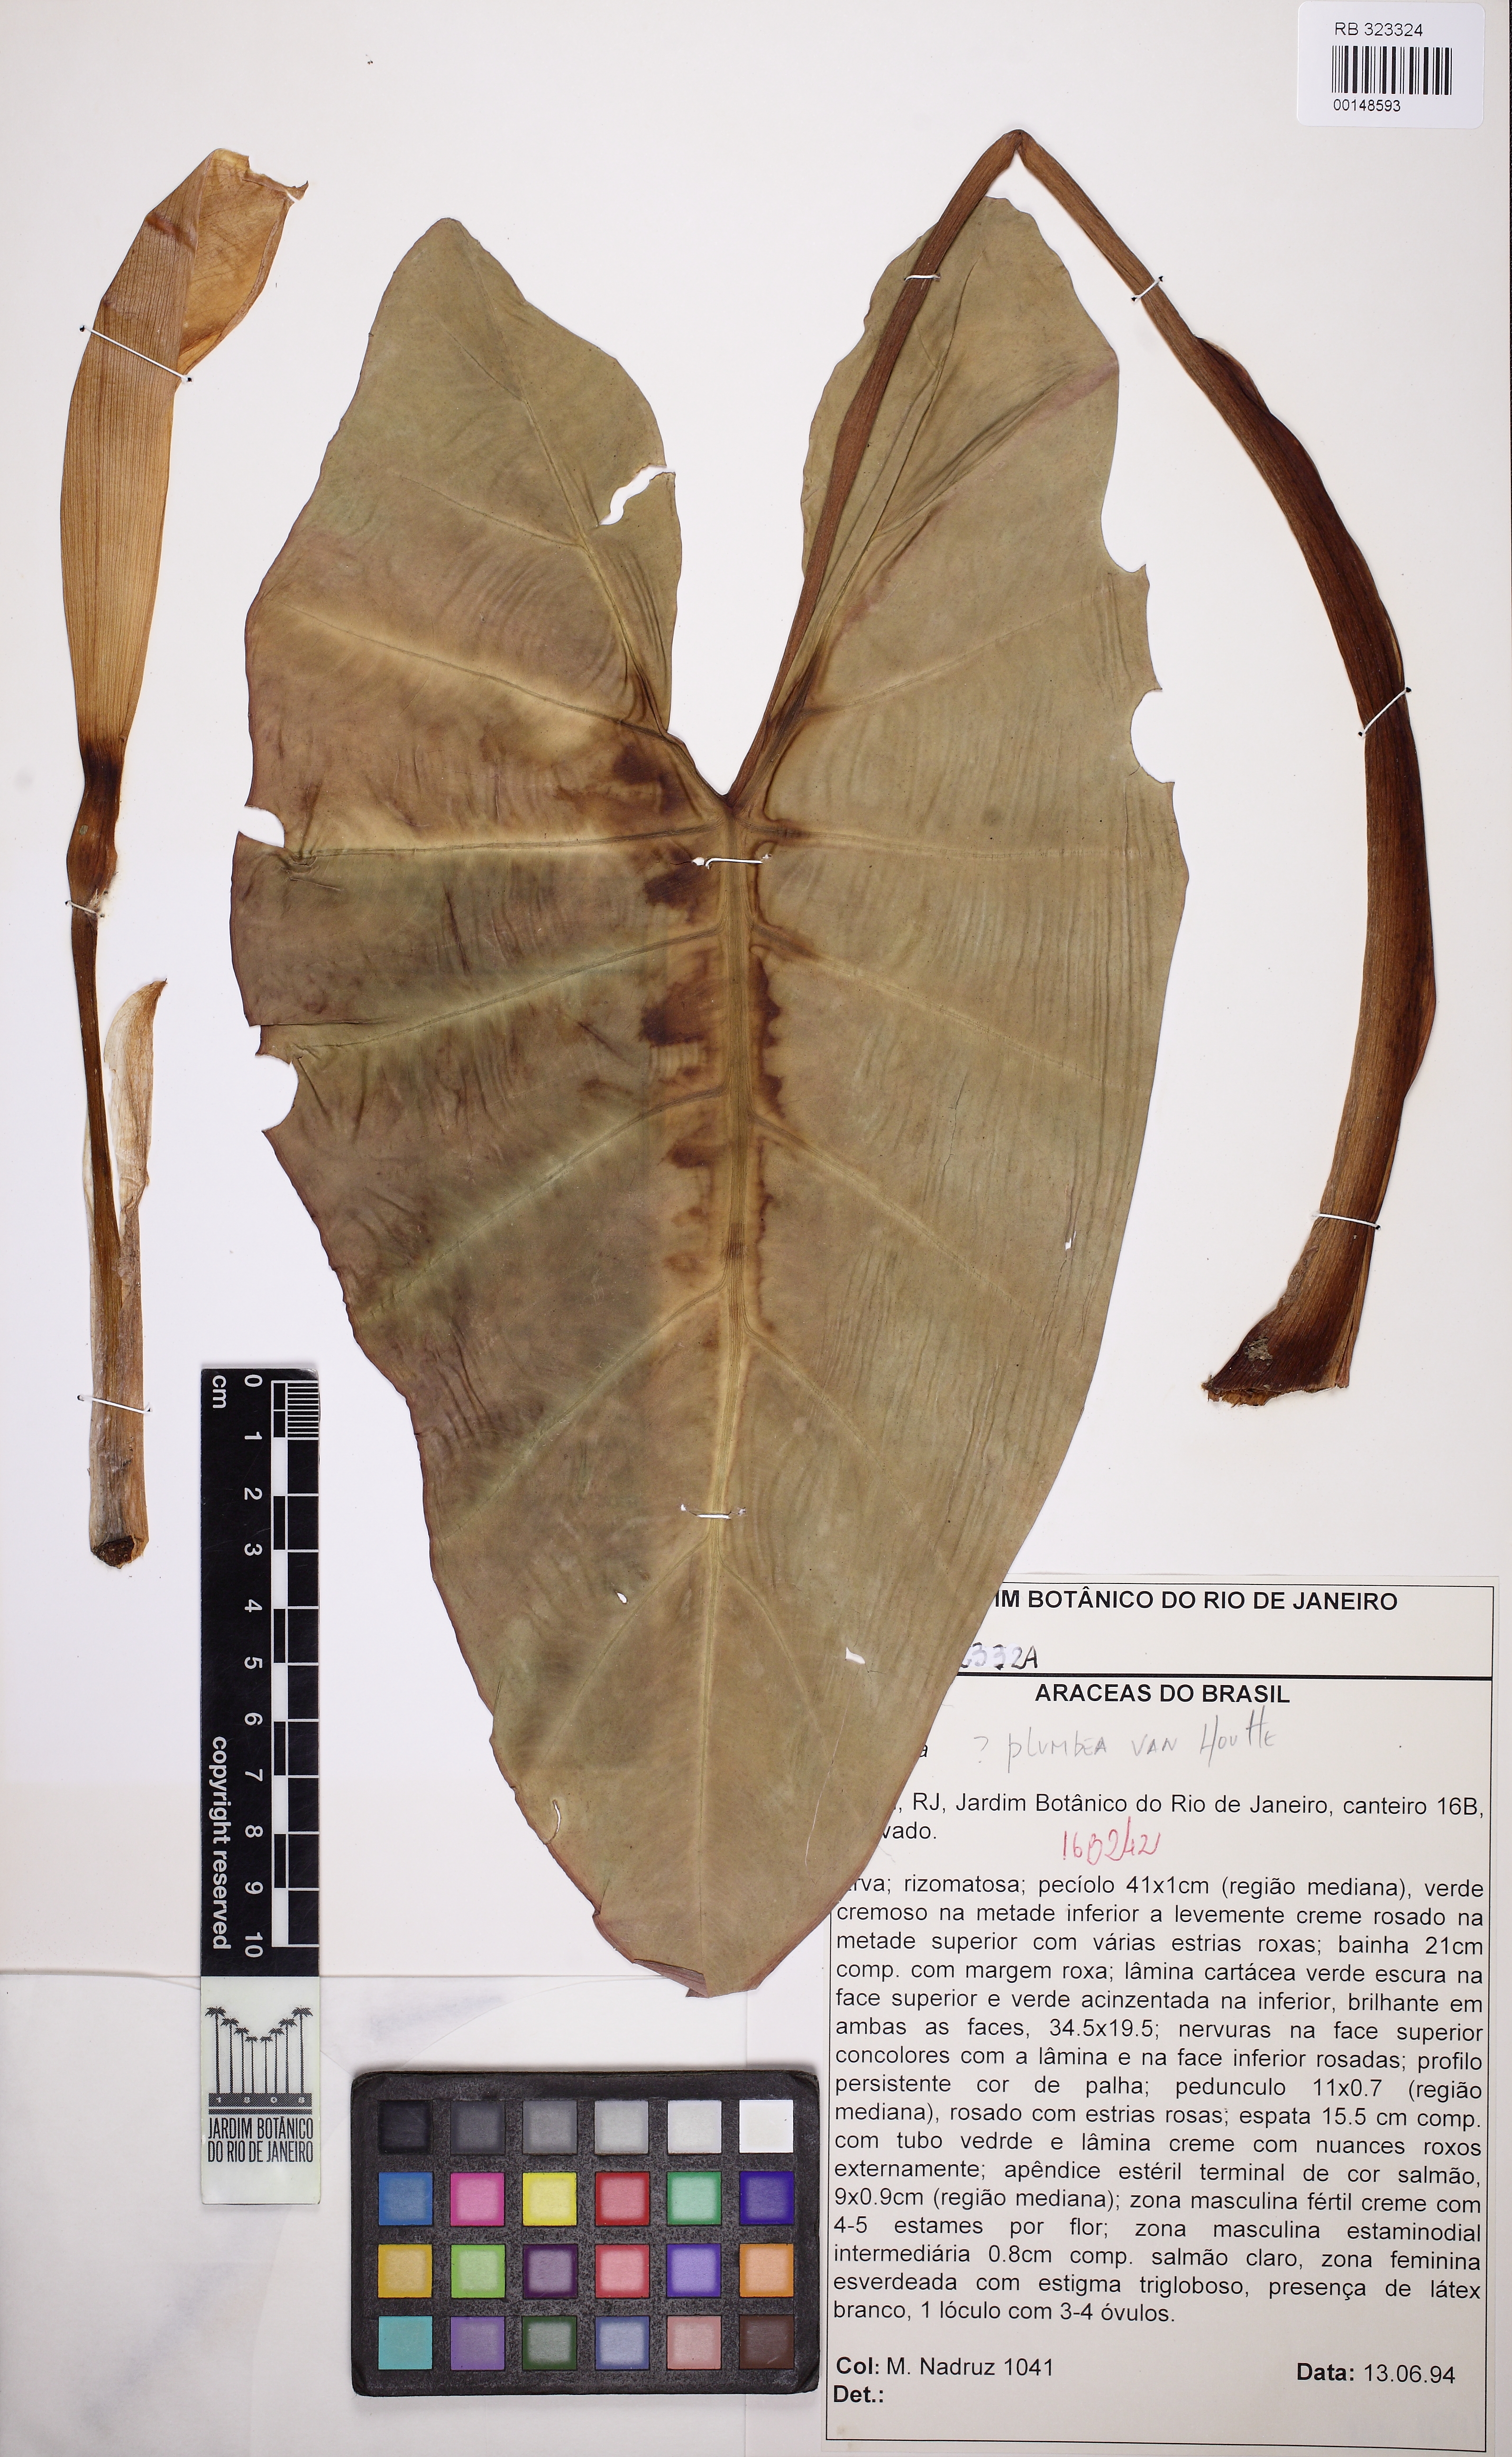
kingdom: Plantae
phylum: Tracheophyta
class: Liliopsida
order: Alismatales
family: Araceae
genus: Alocasia
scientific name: Alocasia
